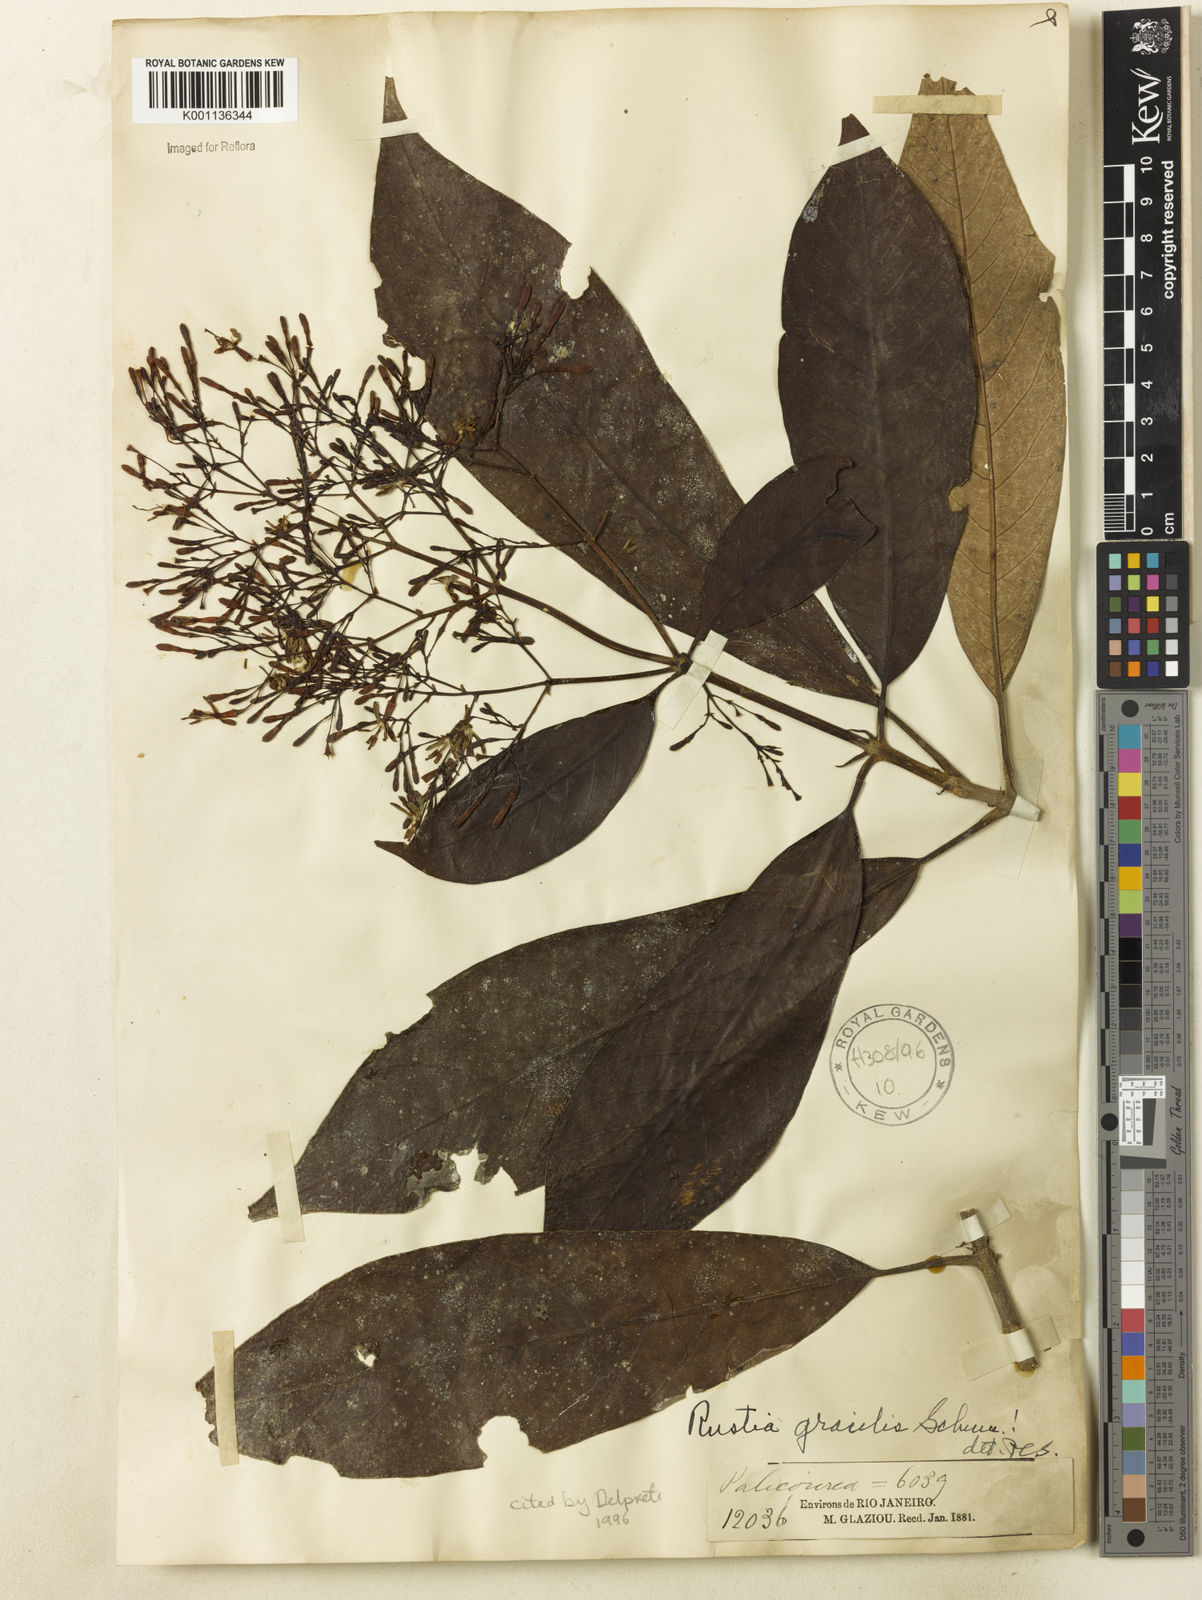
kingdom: Plantae
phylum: Tracheophyta
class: Magnoliopsida
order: Gentianales
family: Rubiaceae
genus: Rustia
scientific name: Rustia gracilis
